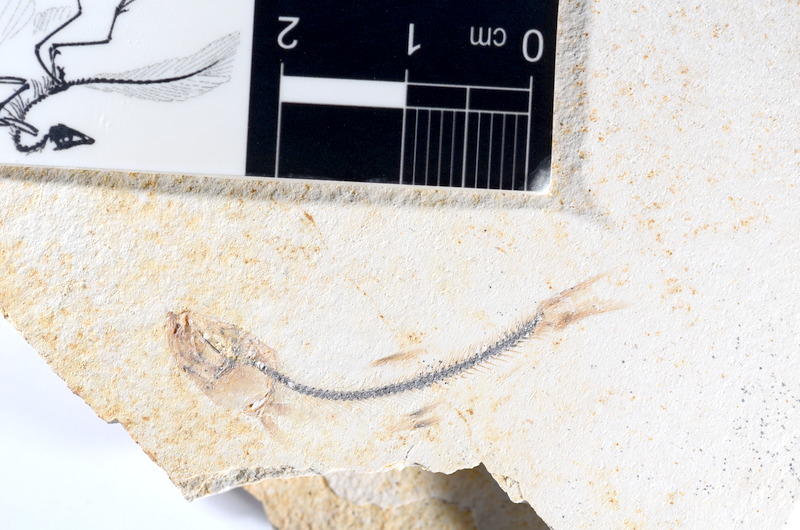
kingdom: Animalia
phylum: Chordata
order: Salmoniformes
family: Orthogonikleithridae
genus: Orthogonikleithrus
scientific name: Orthogonikleithrus hoelli
